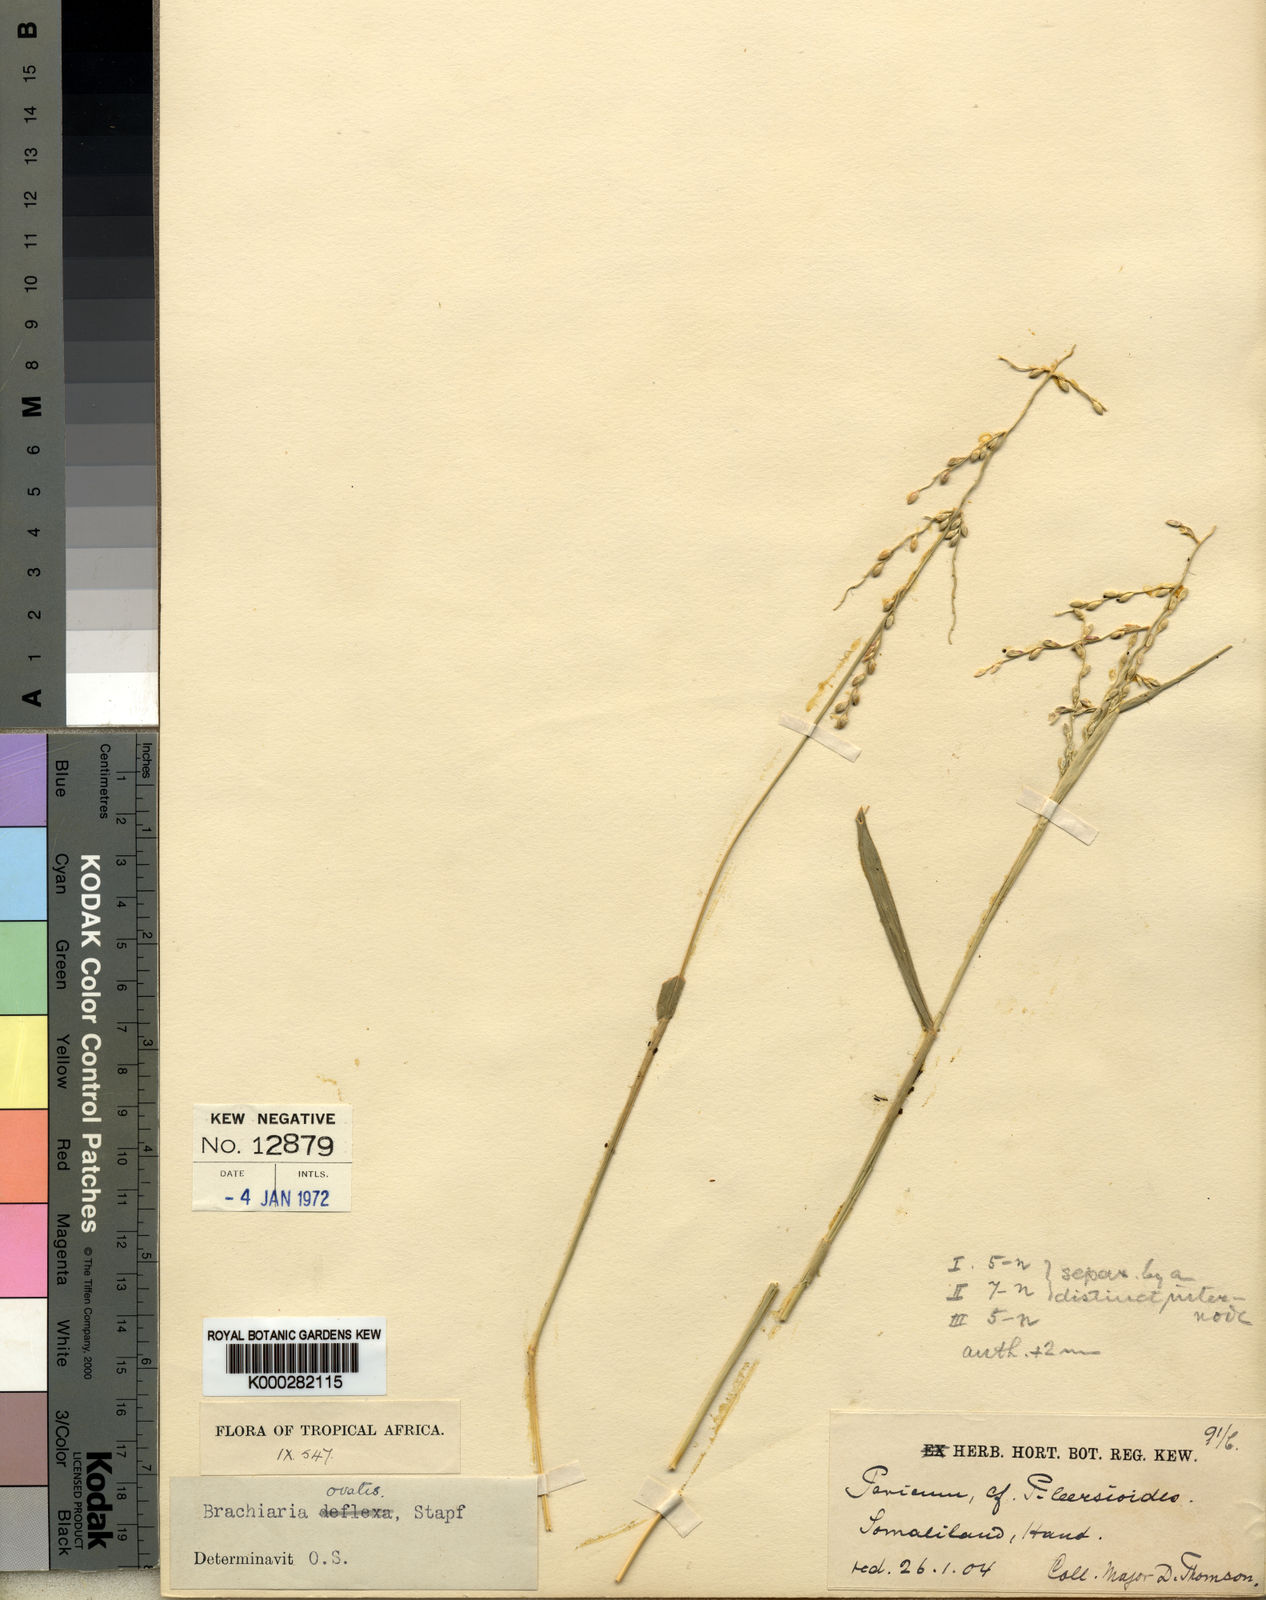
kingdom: Plantae
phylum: Tracheophyta
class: Liliopsida
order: Poales
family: Poaceae
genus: Urochloa
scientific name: Urochloa ovalis
